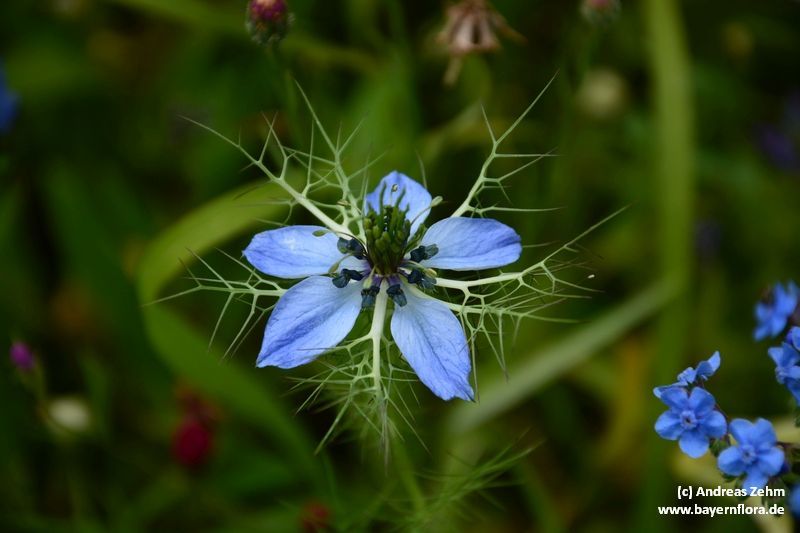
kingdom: Plantae
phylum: Tracheophyta
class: Magnoliopsida
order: Ranunculales
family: Ranunculaceae
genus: Nigella
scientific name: Nigella damascena
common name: Love-in-a-mist
